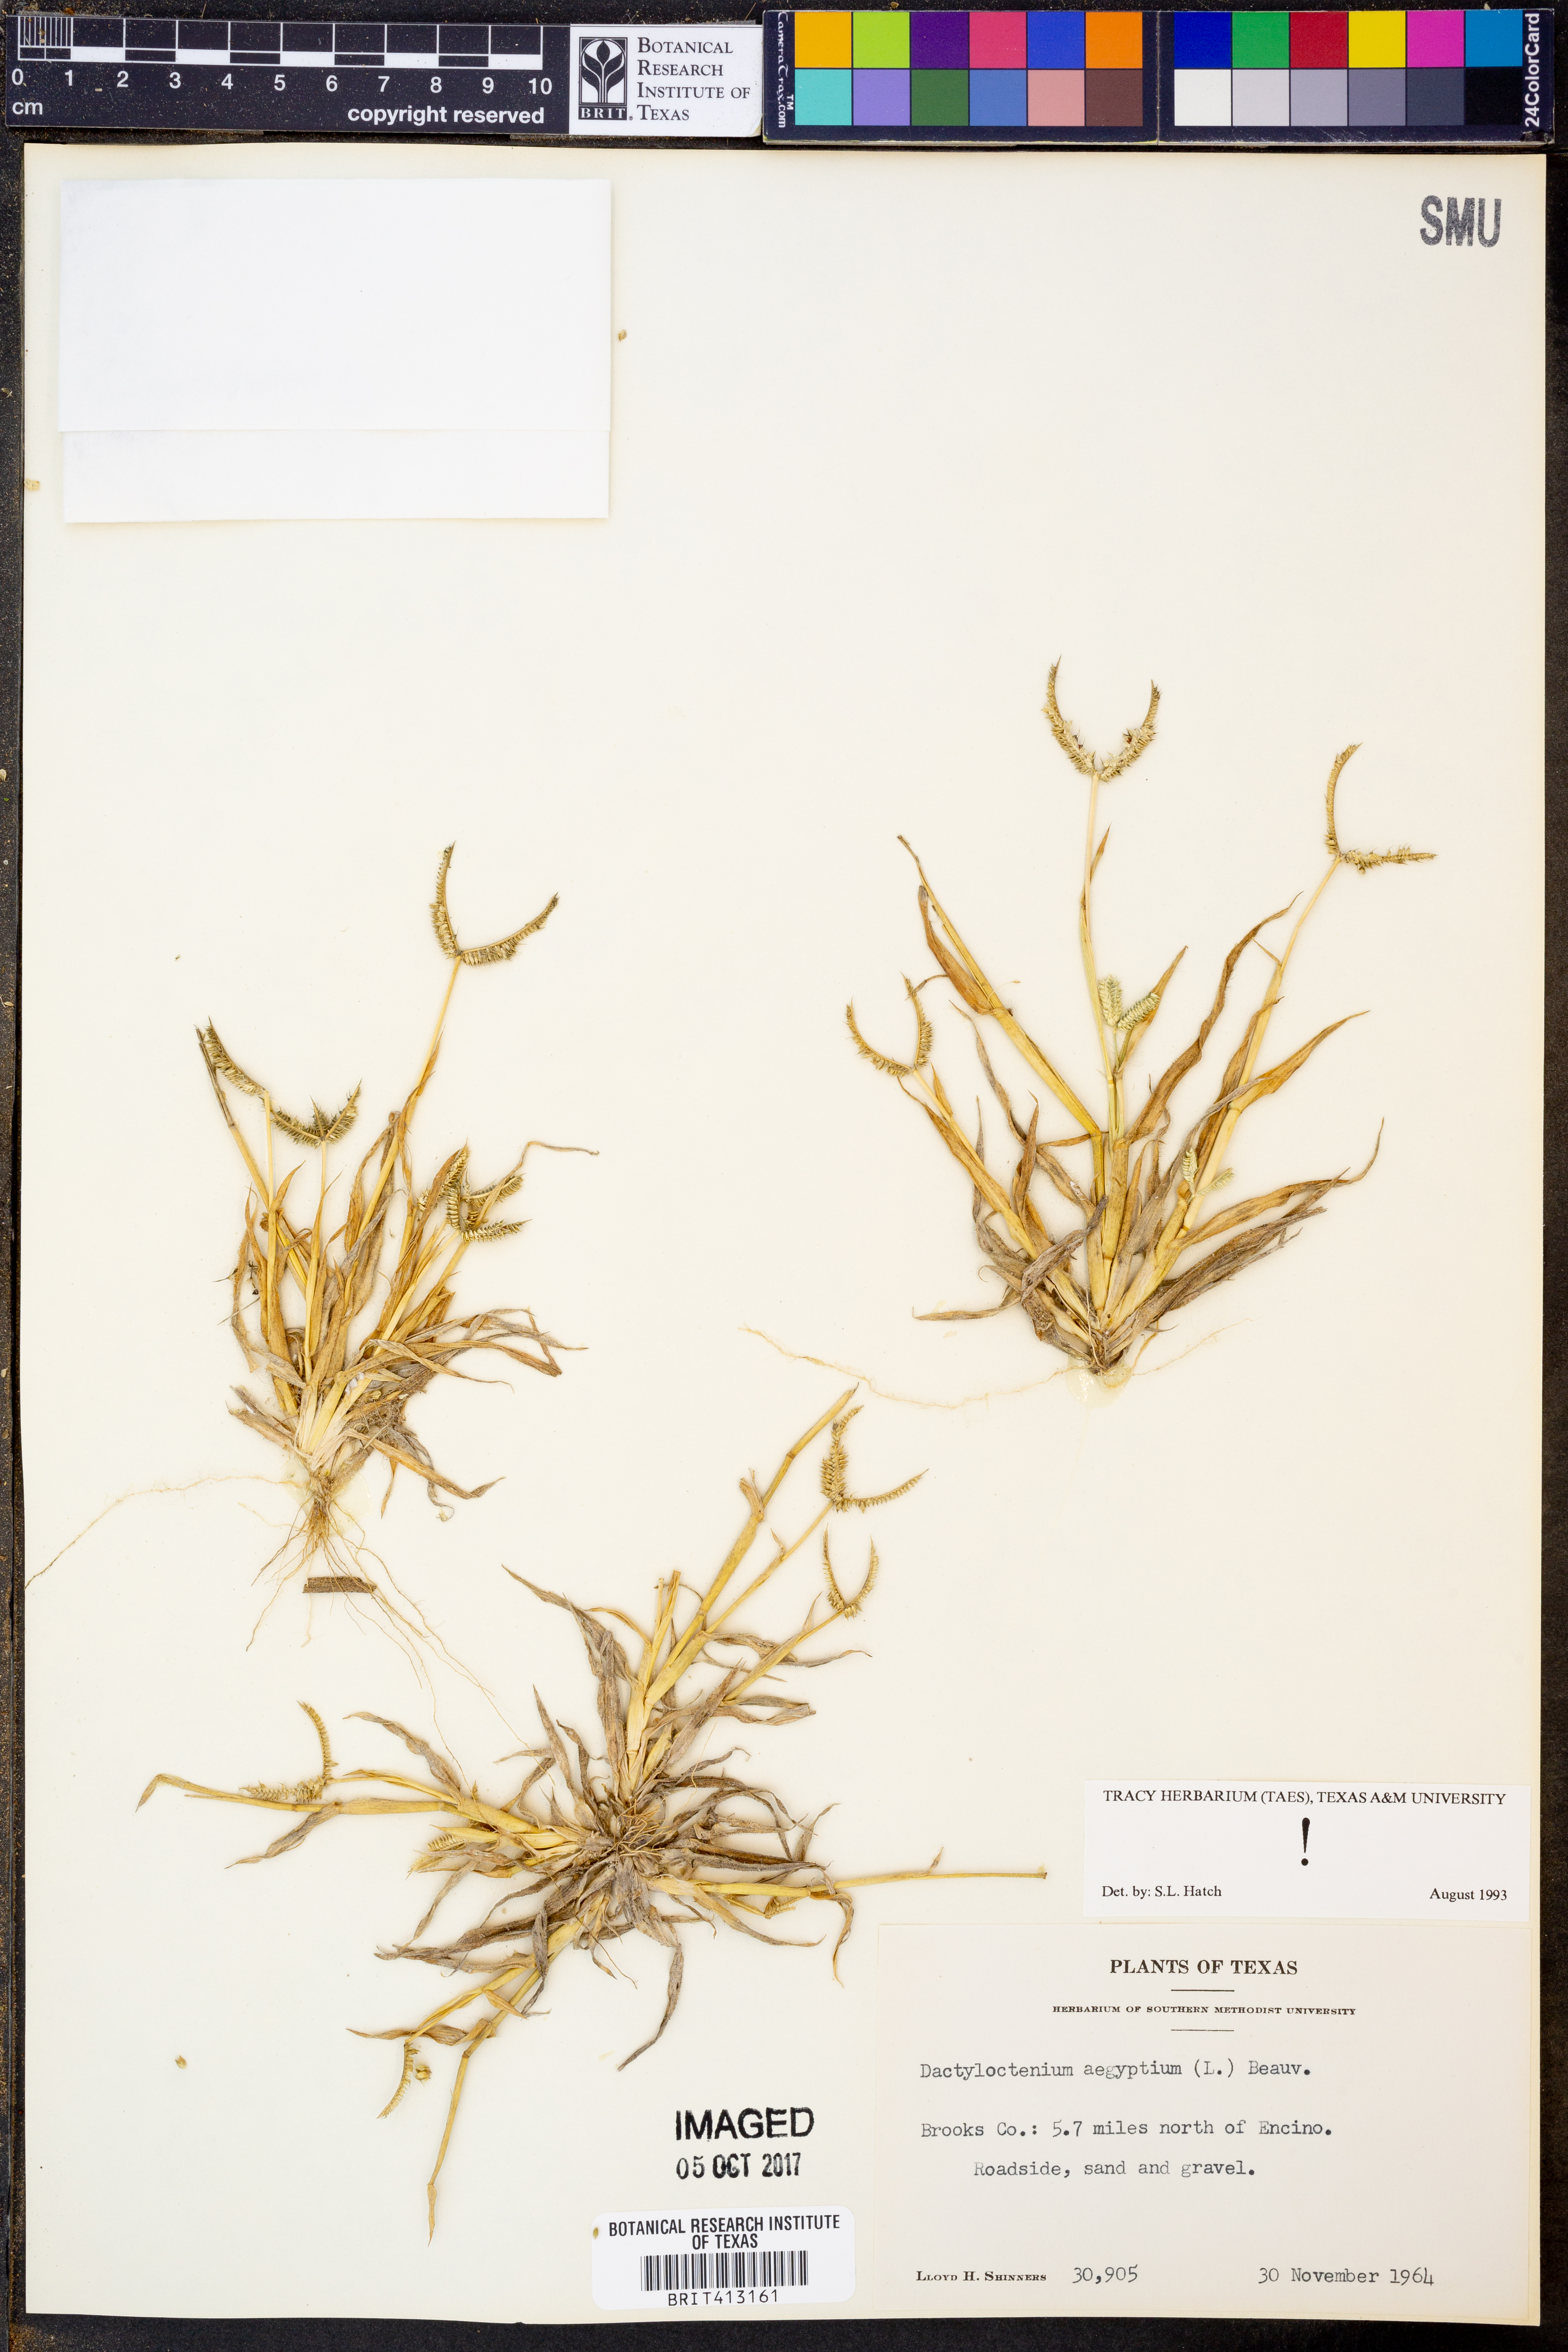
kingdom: Plantae
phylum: Tracheophyta
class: Liliopsida
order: Poales
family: Poaceae
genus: Dactyloctenium
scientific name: Dactyloctenium aegyptium
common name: Egyptian grass
